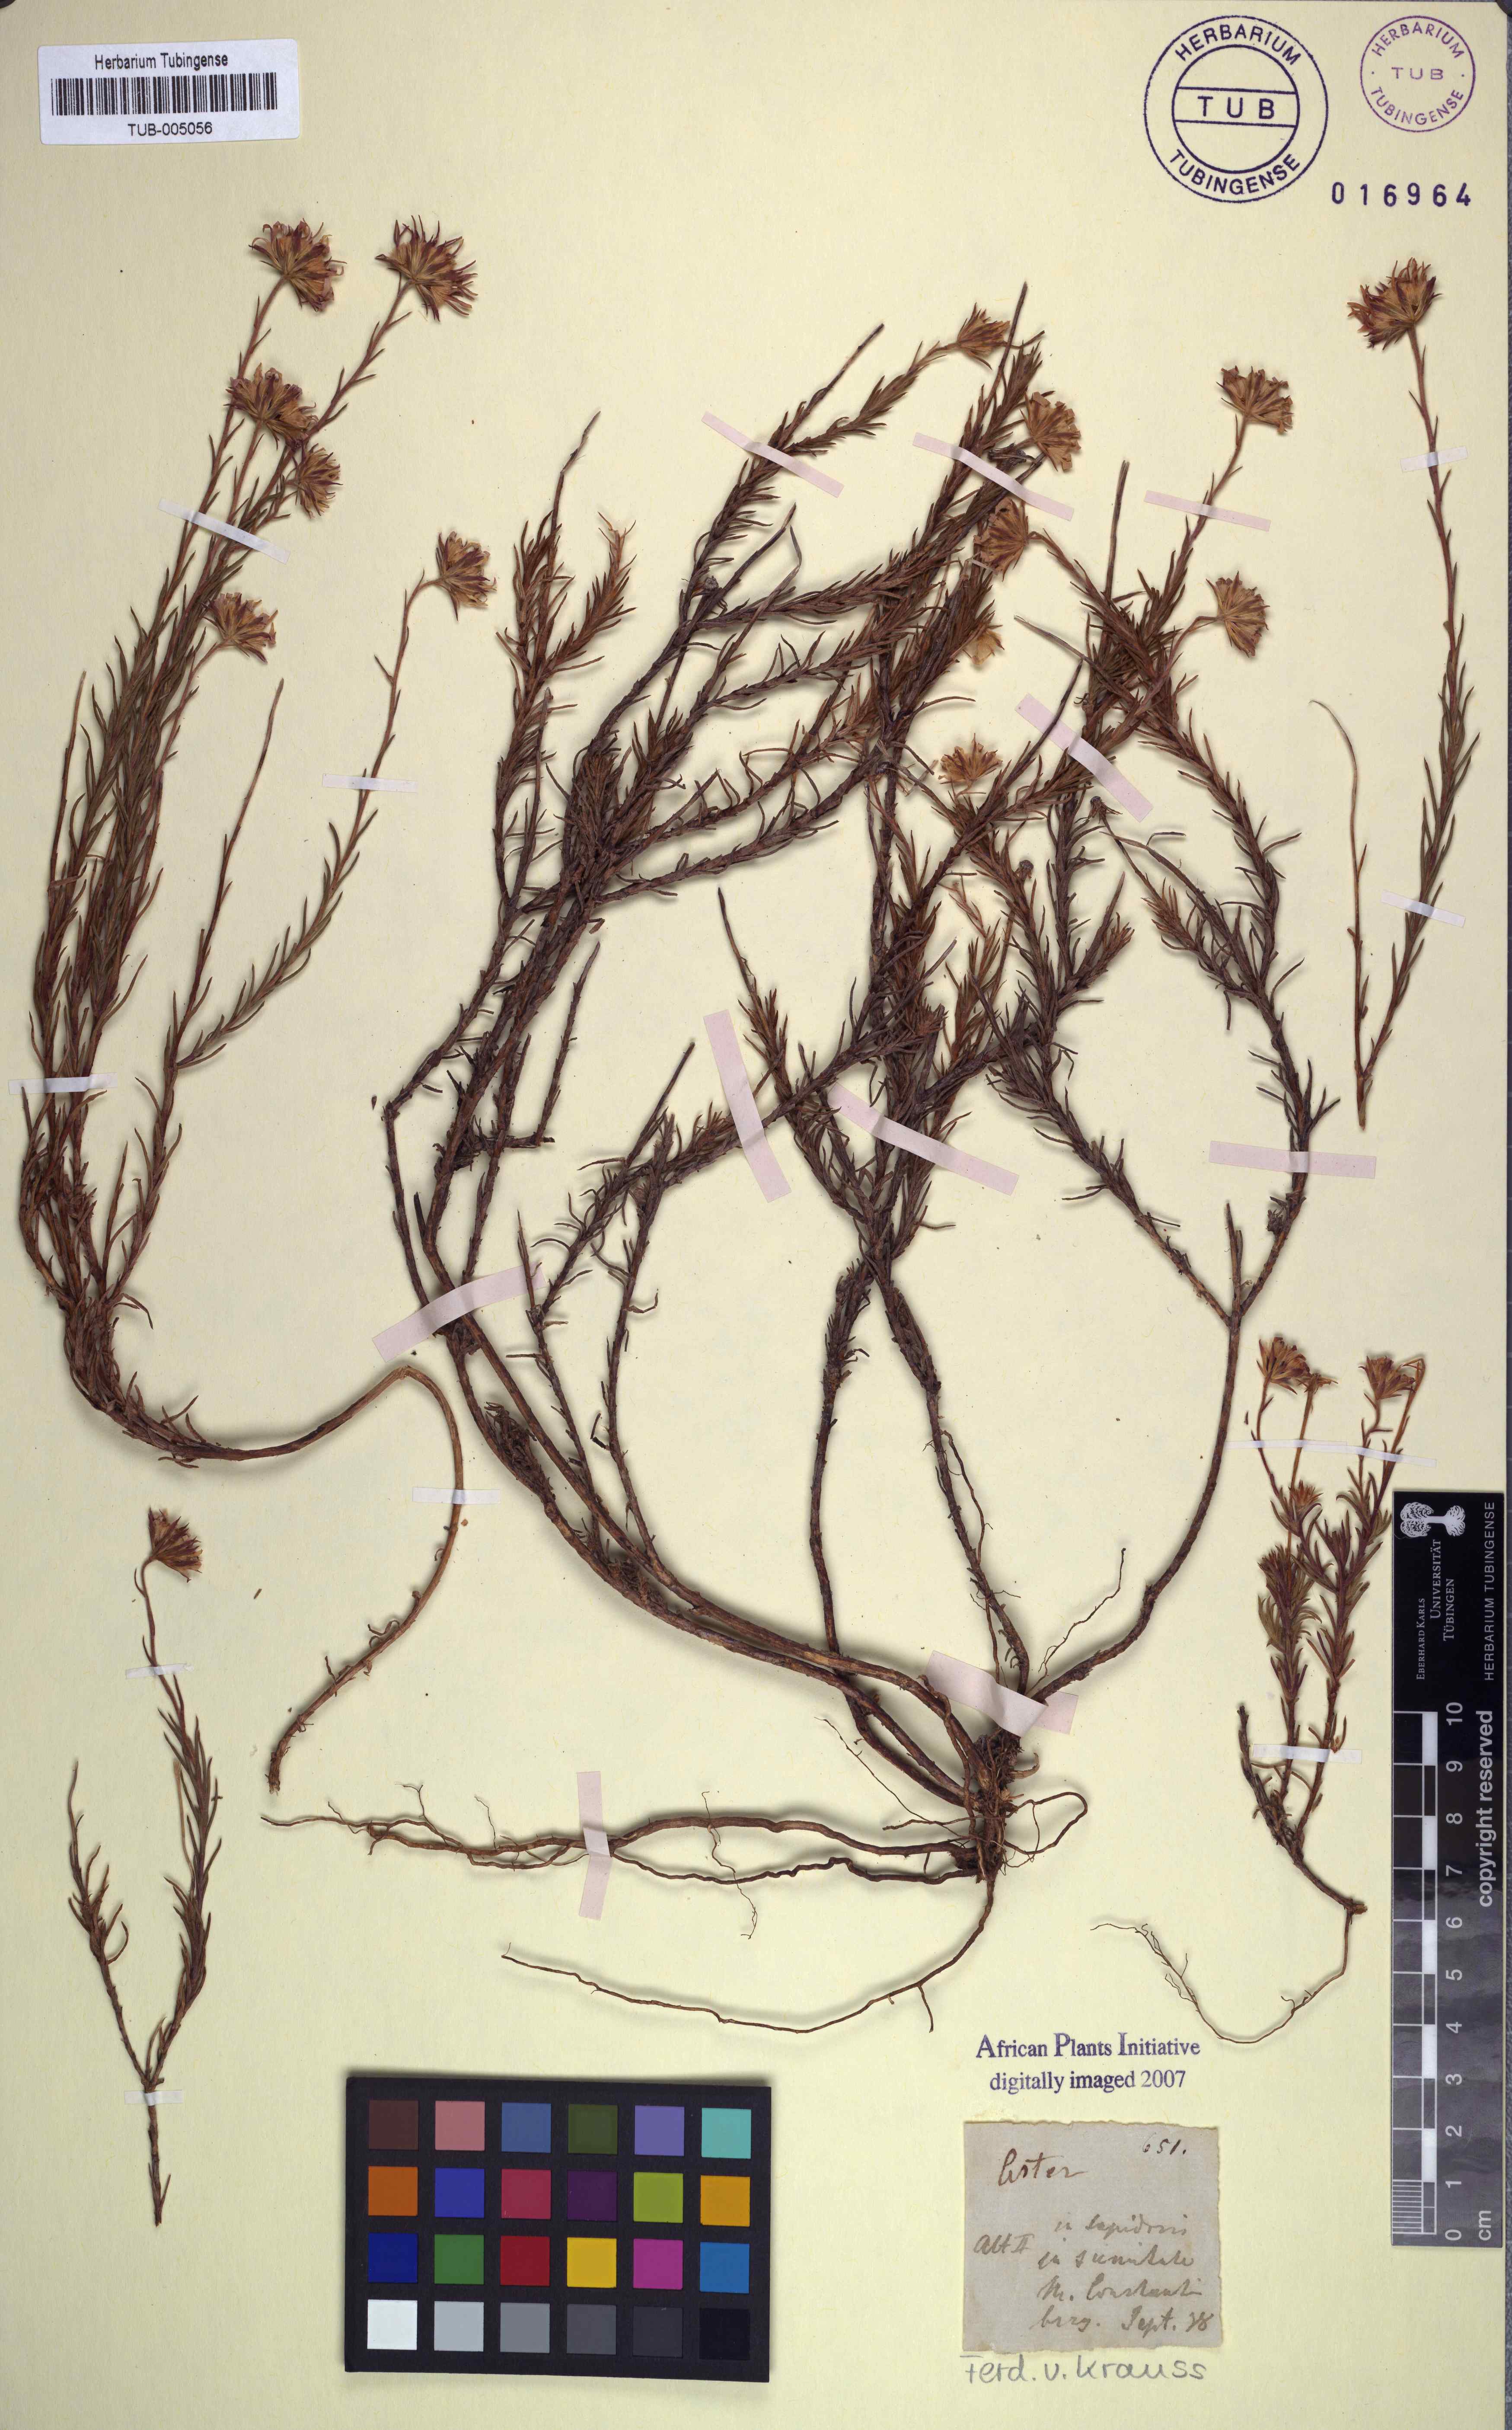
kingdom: Plantae
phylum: Tracheophyta
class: Magnoliopsida
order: Asterales
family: Asteraceae
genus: Zyrphelis
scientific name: Zyrphelis taxifolia
